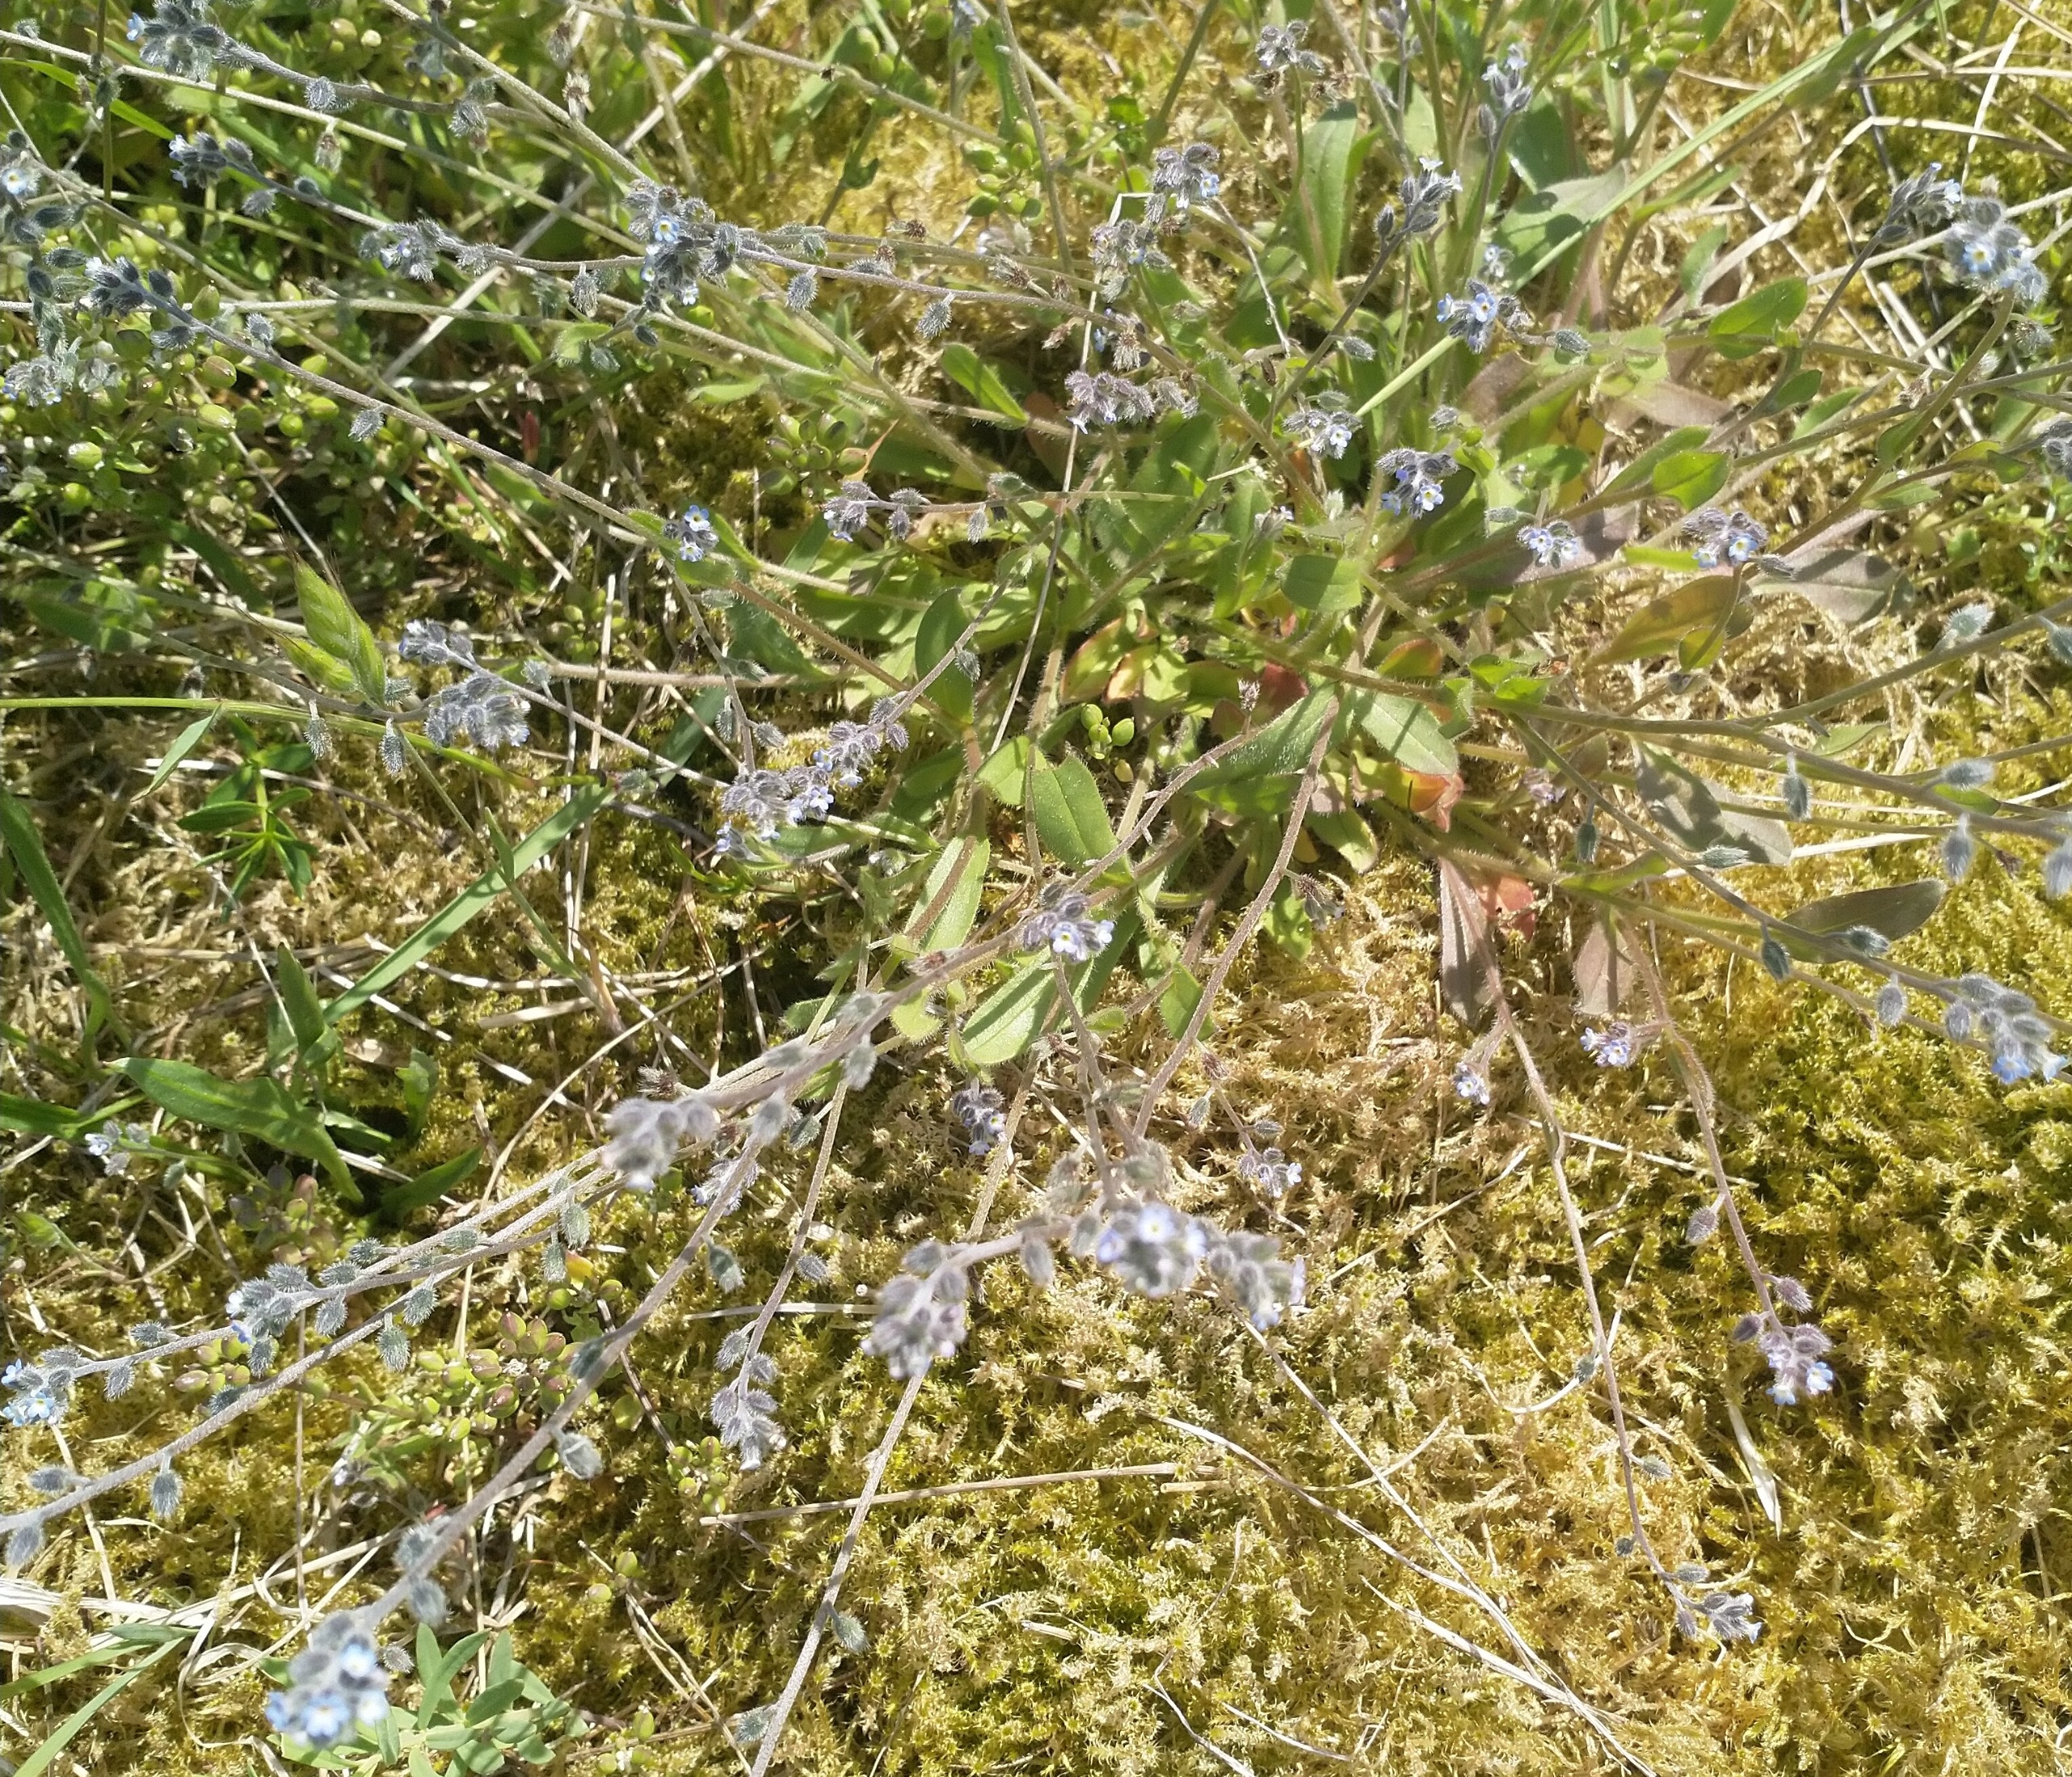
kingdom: Plantae
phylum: Tracheophyta
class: Magnoliopsida
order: Boraginales
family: Boraginaceae
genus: Myosotis
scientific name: Myosotis ramosissima
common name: Bakke-forglemmigej
